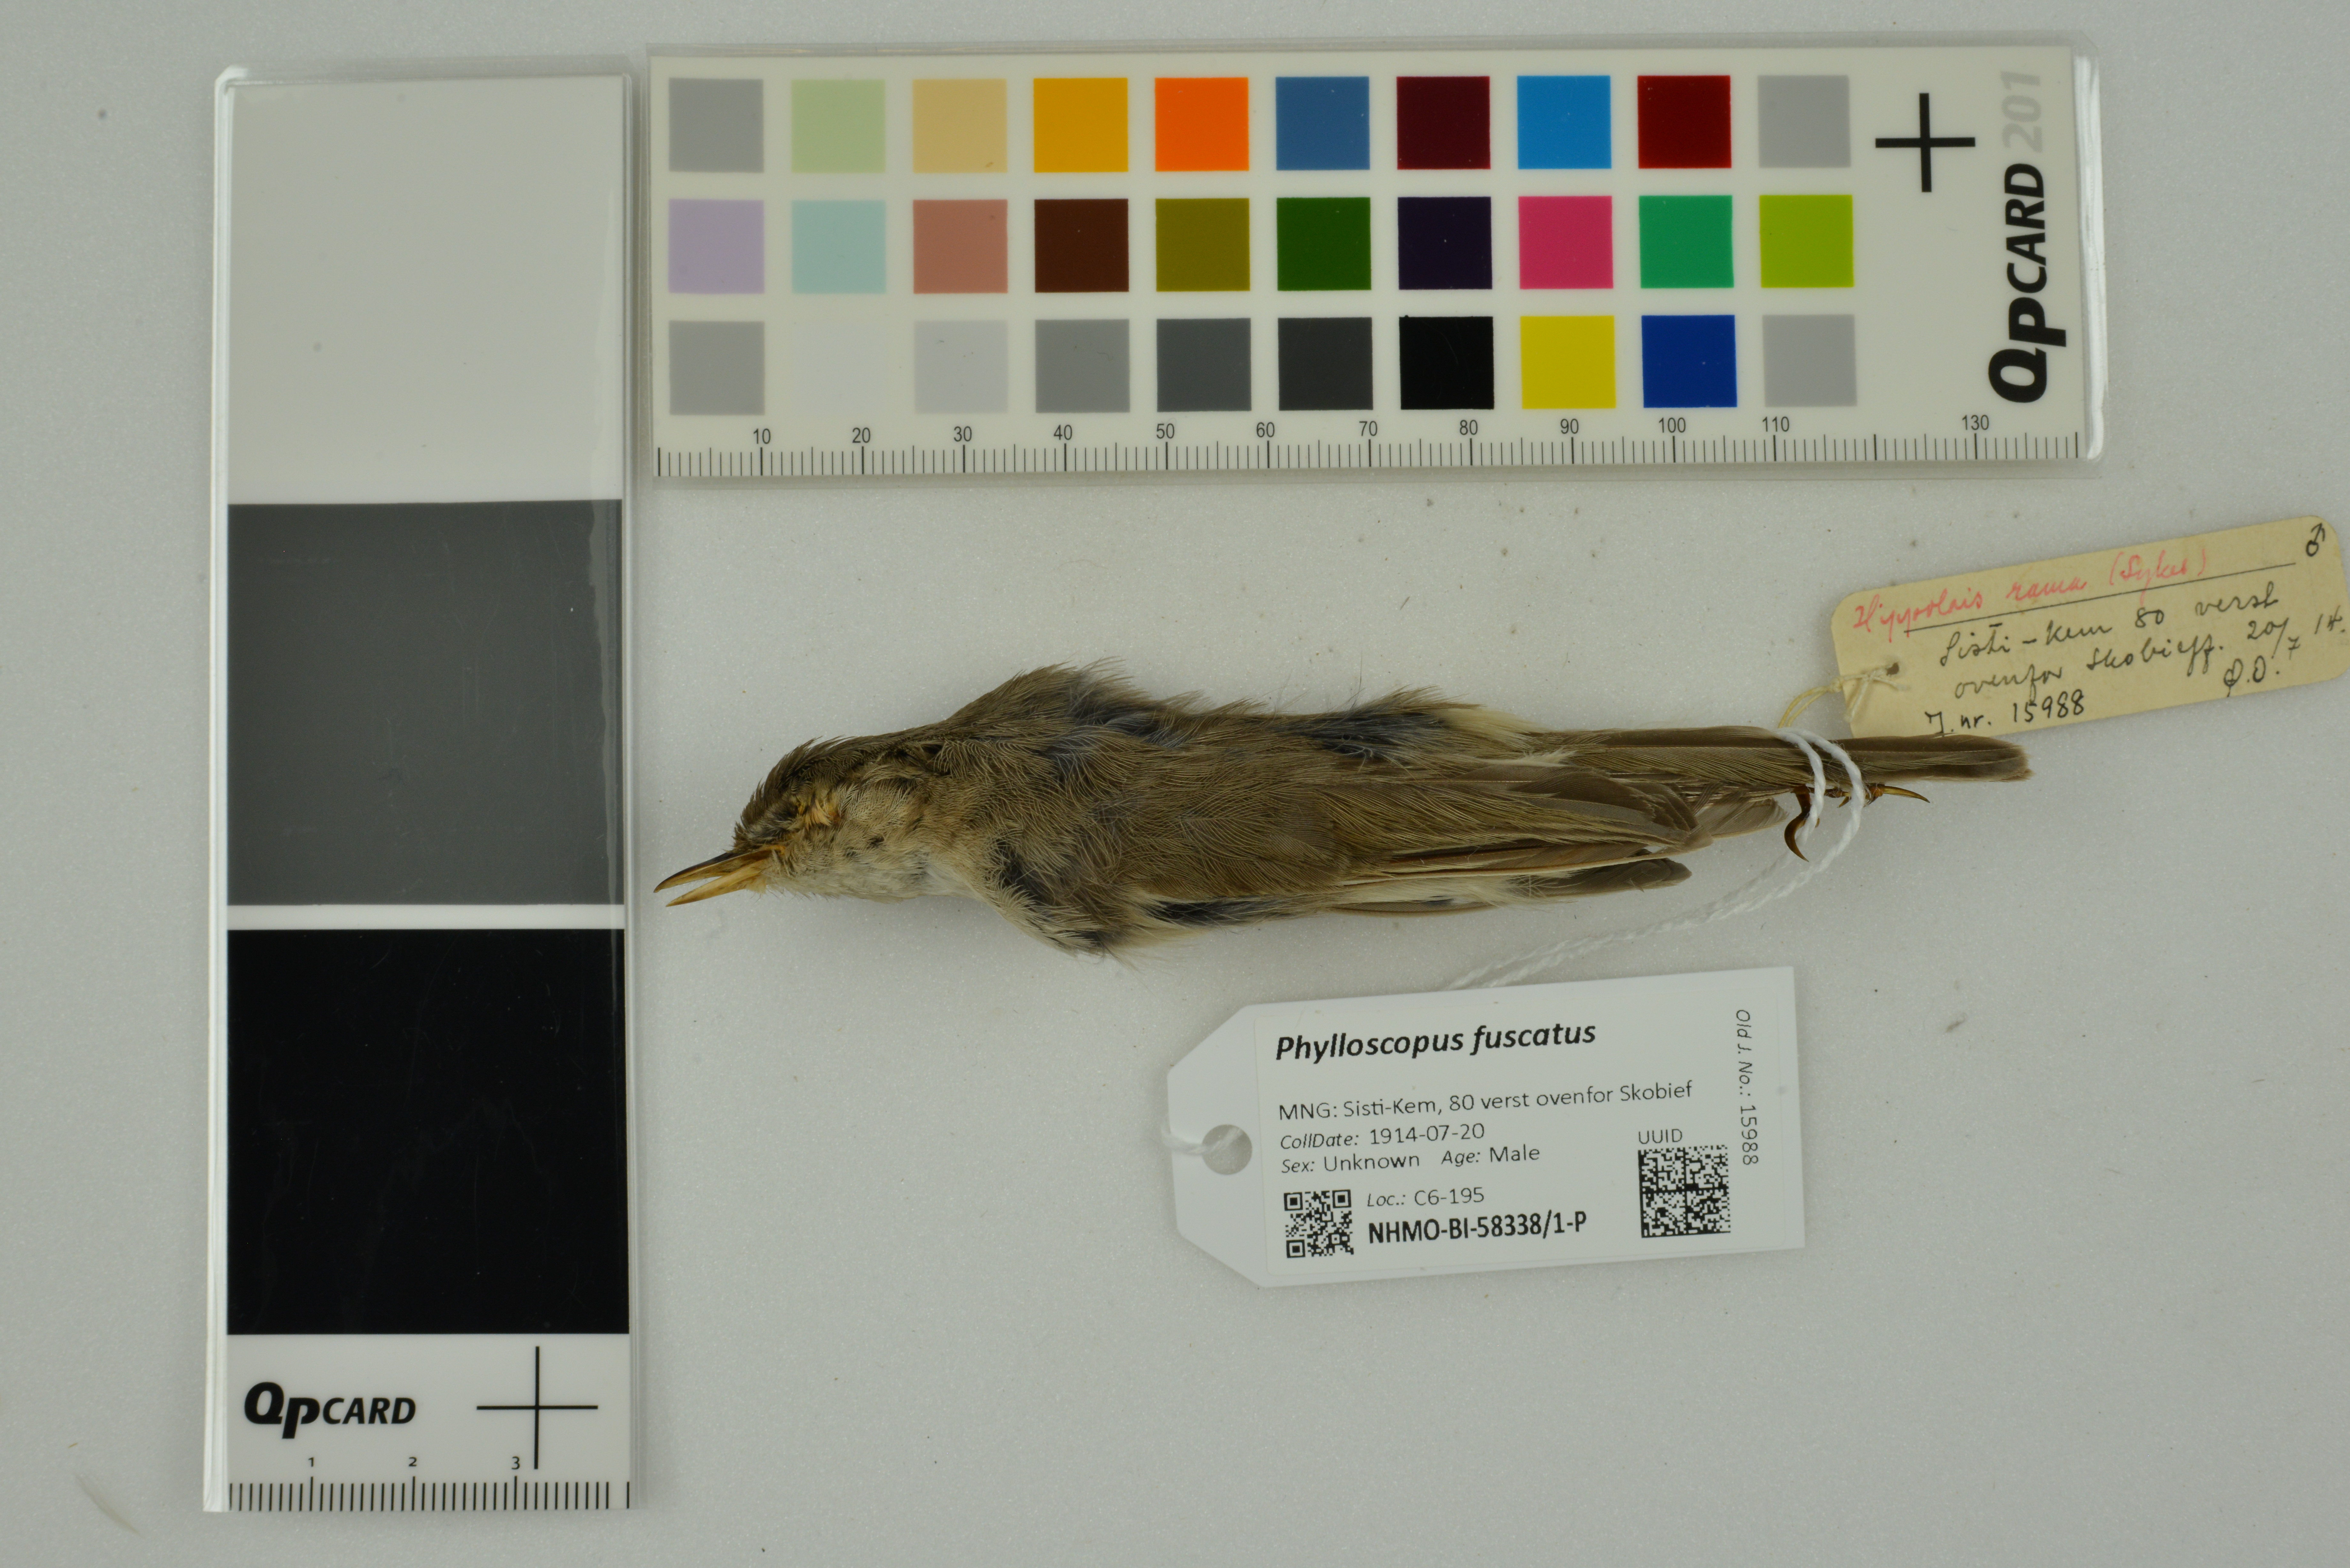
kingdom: Animalia
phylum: Chordata
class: Aves
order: Passeriformes
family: Phylloscopidae
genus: Phylloscopus
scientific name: Phylloscopus fuscatus
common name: Dusky warbler
